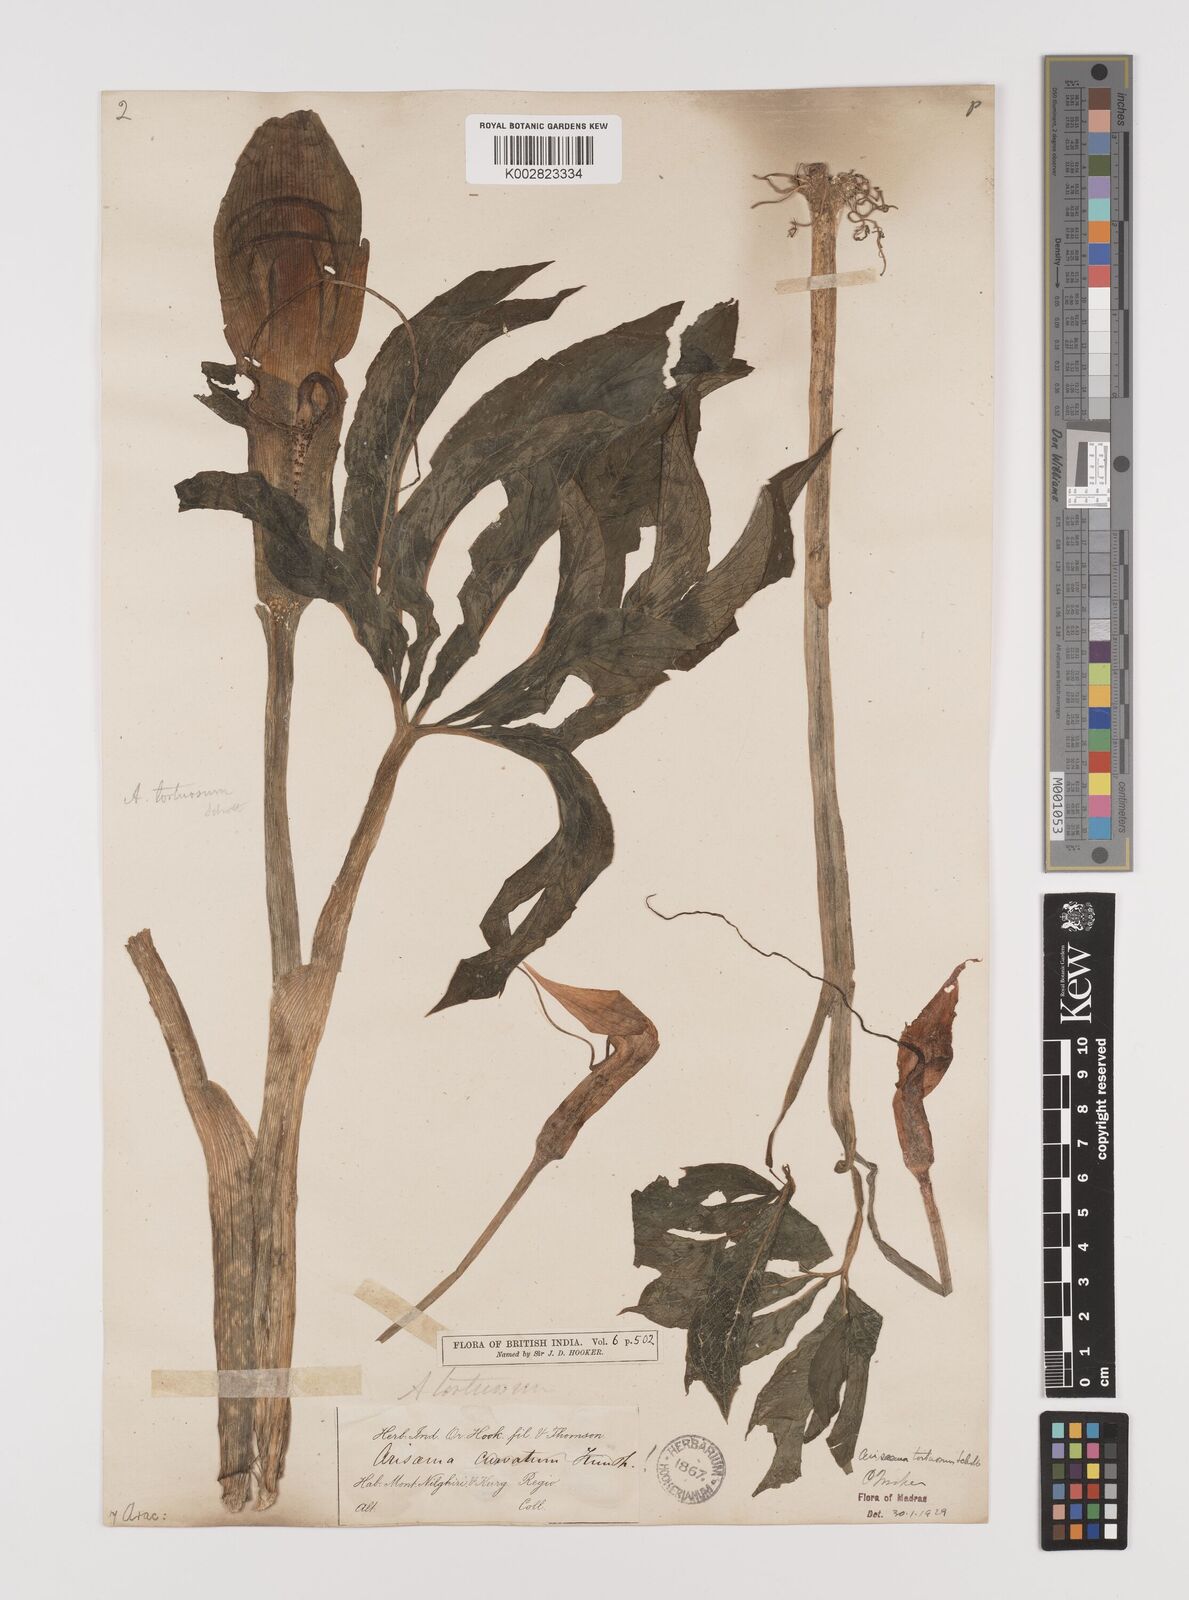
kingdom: Plantae
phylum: Tracheophyta
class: Liliopsida
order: Alismatales
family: Araceae
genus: Arisaema
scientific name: Arisaema tortuosum
